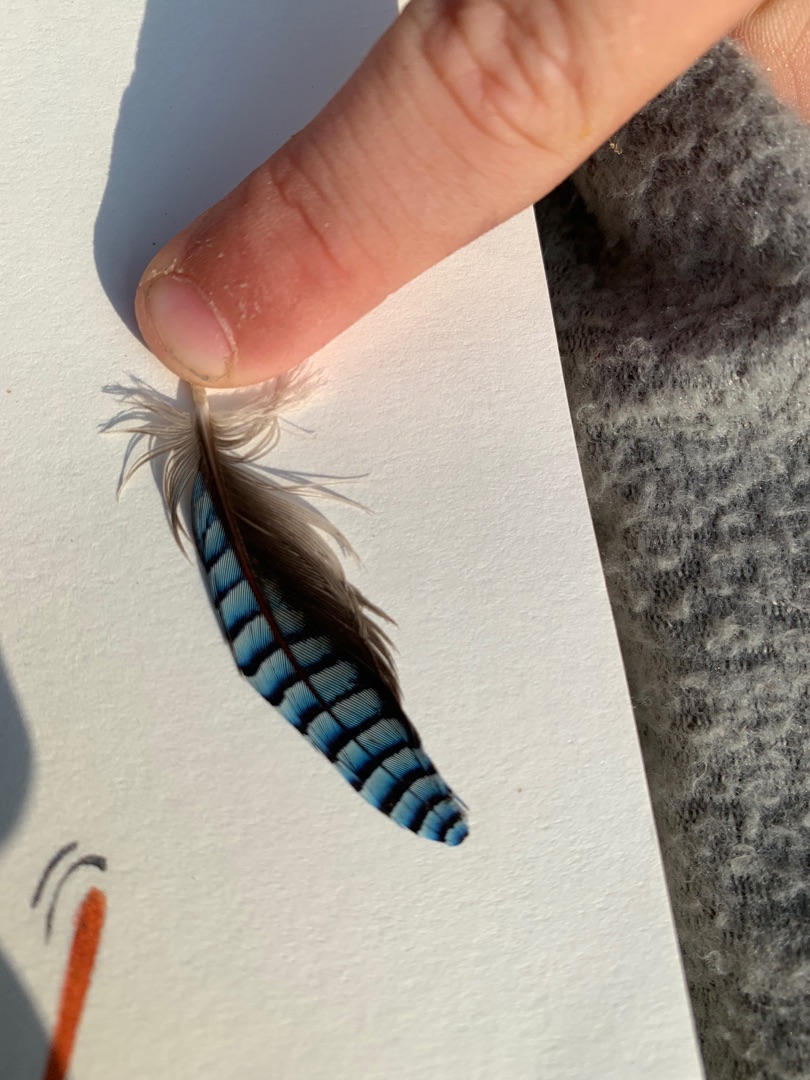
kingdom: Animalia
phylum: Chordata
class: Aves
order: Passeriformes
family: Corvidae
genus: Garrulus
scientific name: Garrulus glandarius
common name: Skovskade
